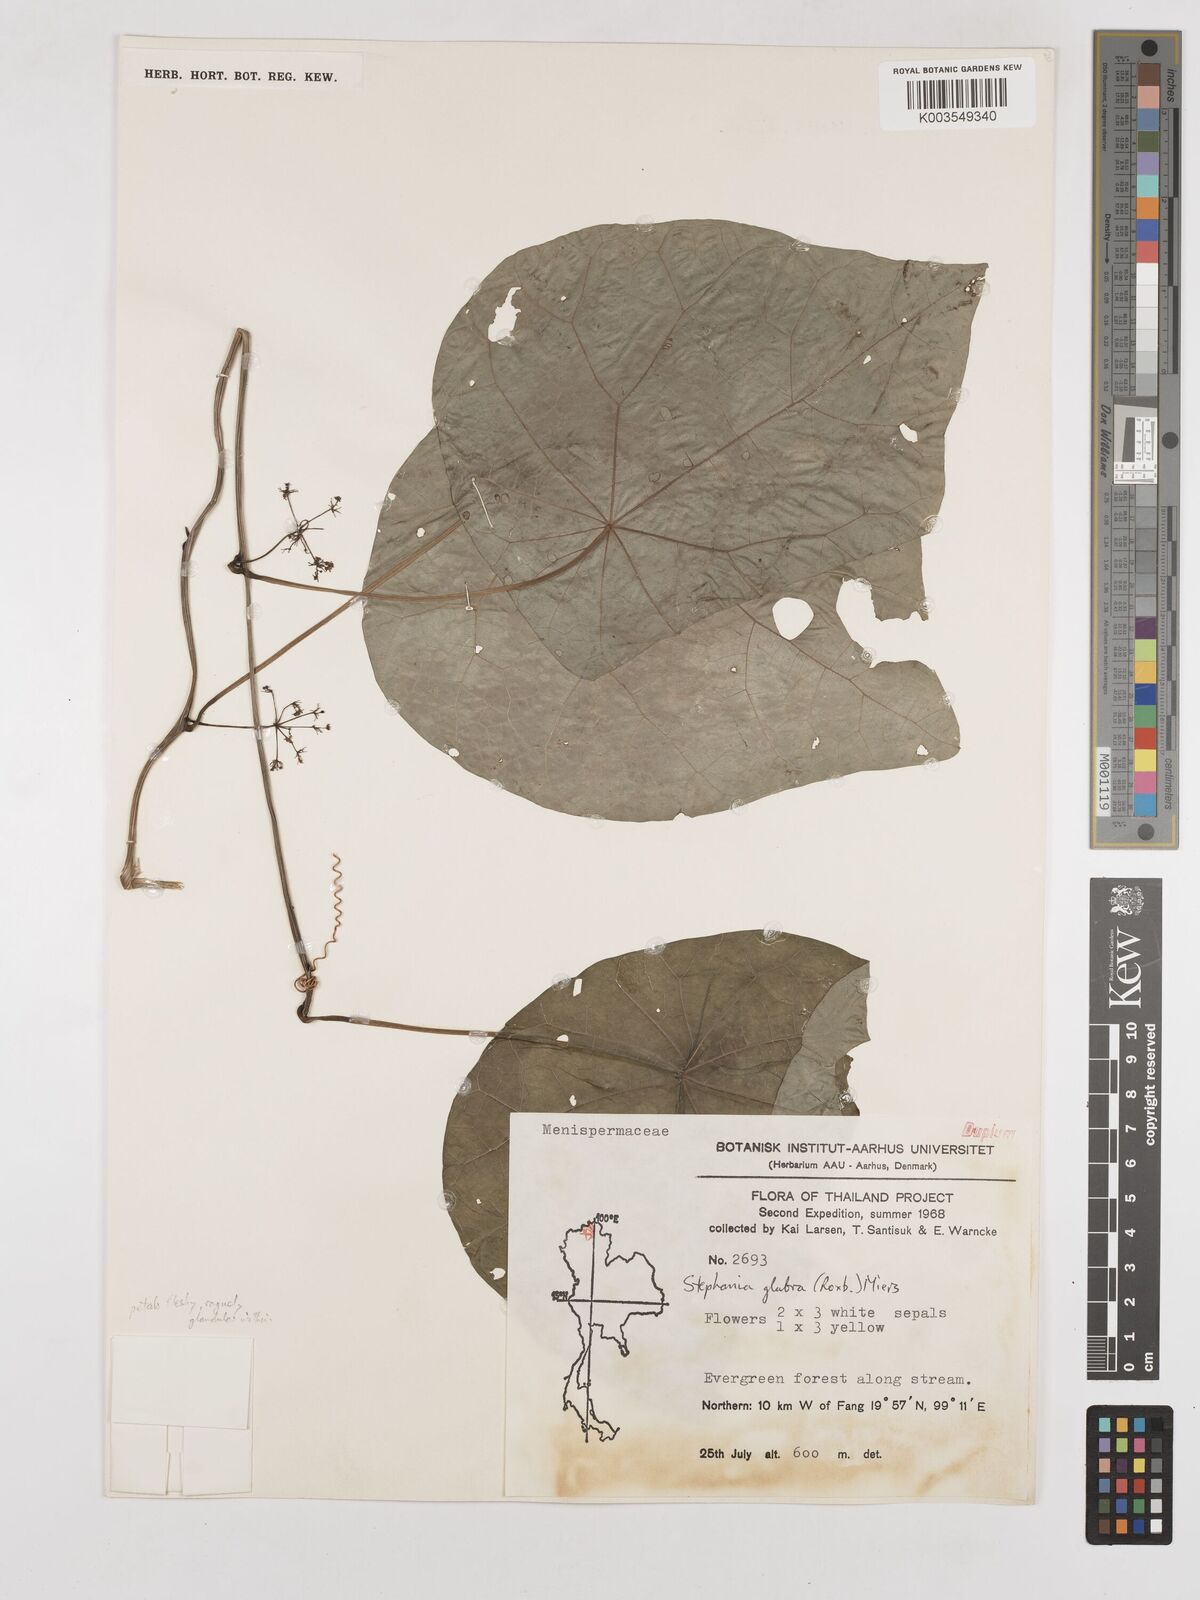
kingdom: Plantae
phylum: Tracheophyta
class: Magnoliopsida
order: Ranunculales
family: Menispermaceae
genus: Stephania
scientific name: Stephania rotunda
